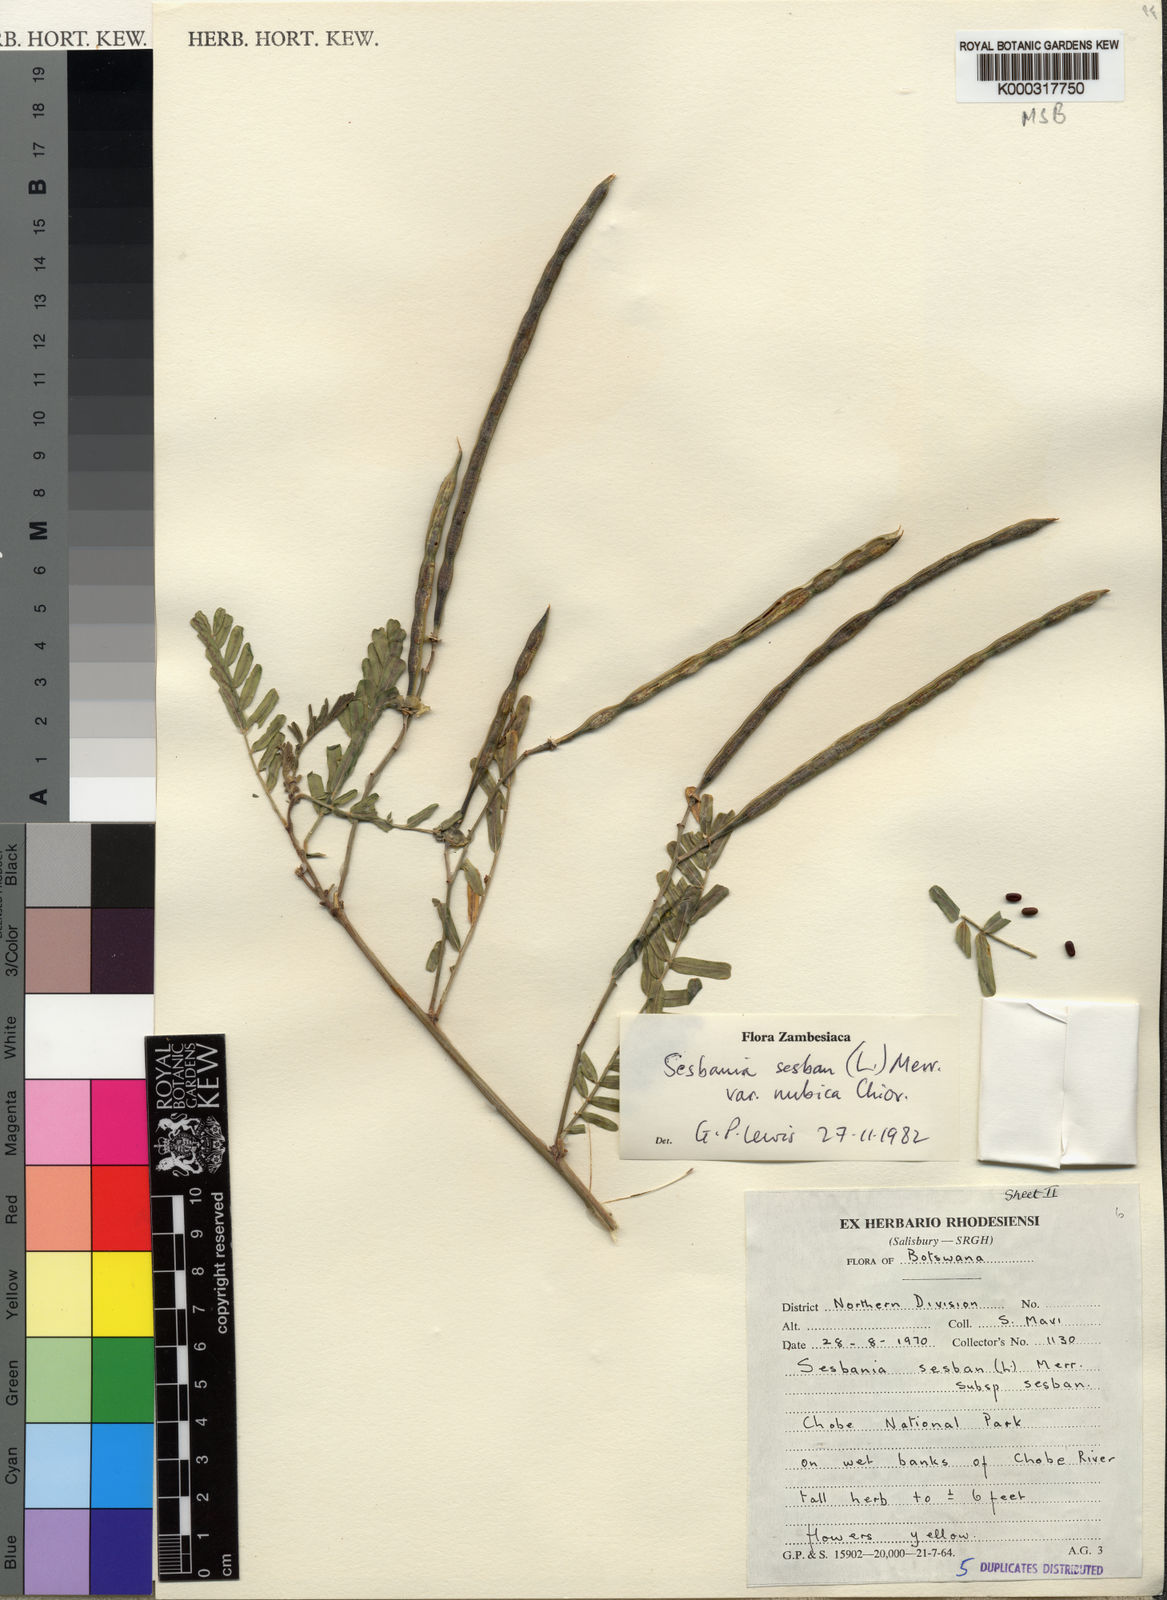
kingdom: Plantae
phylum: Tracheophyta
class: Magnoliopsida
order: Fabales
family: Fabaceae
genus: Sesbania
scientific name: Sesbania sesban
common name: Egyptian sesban
